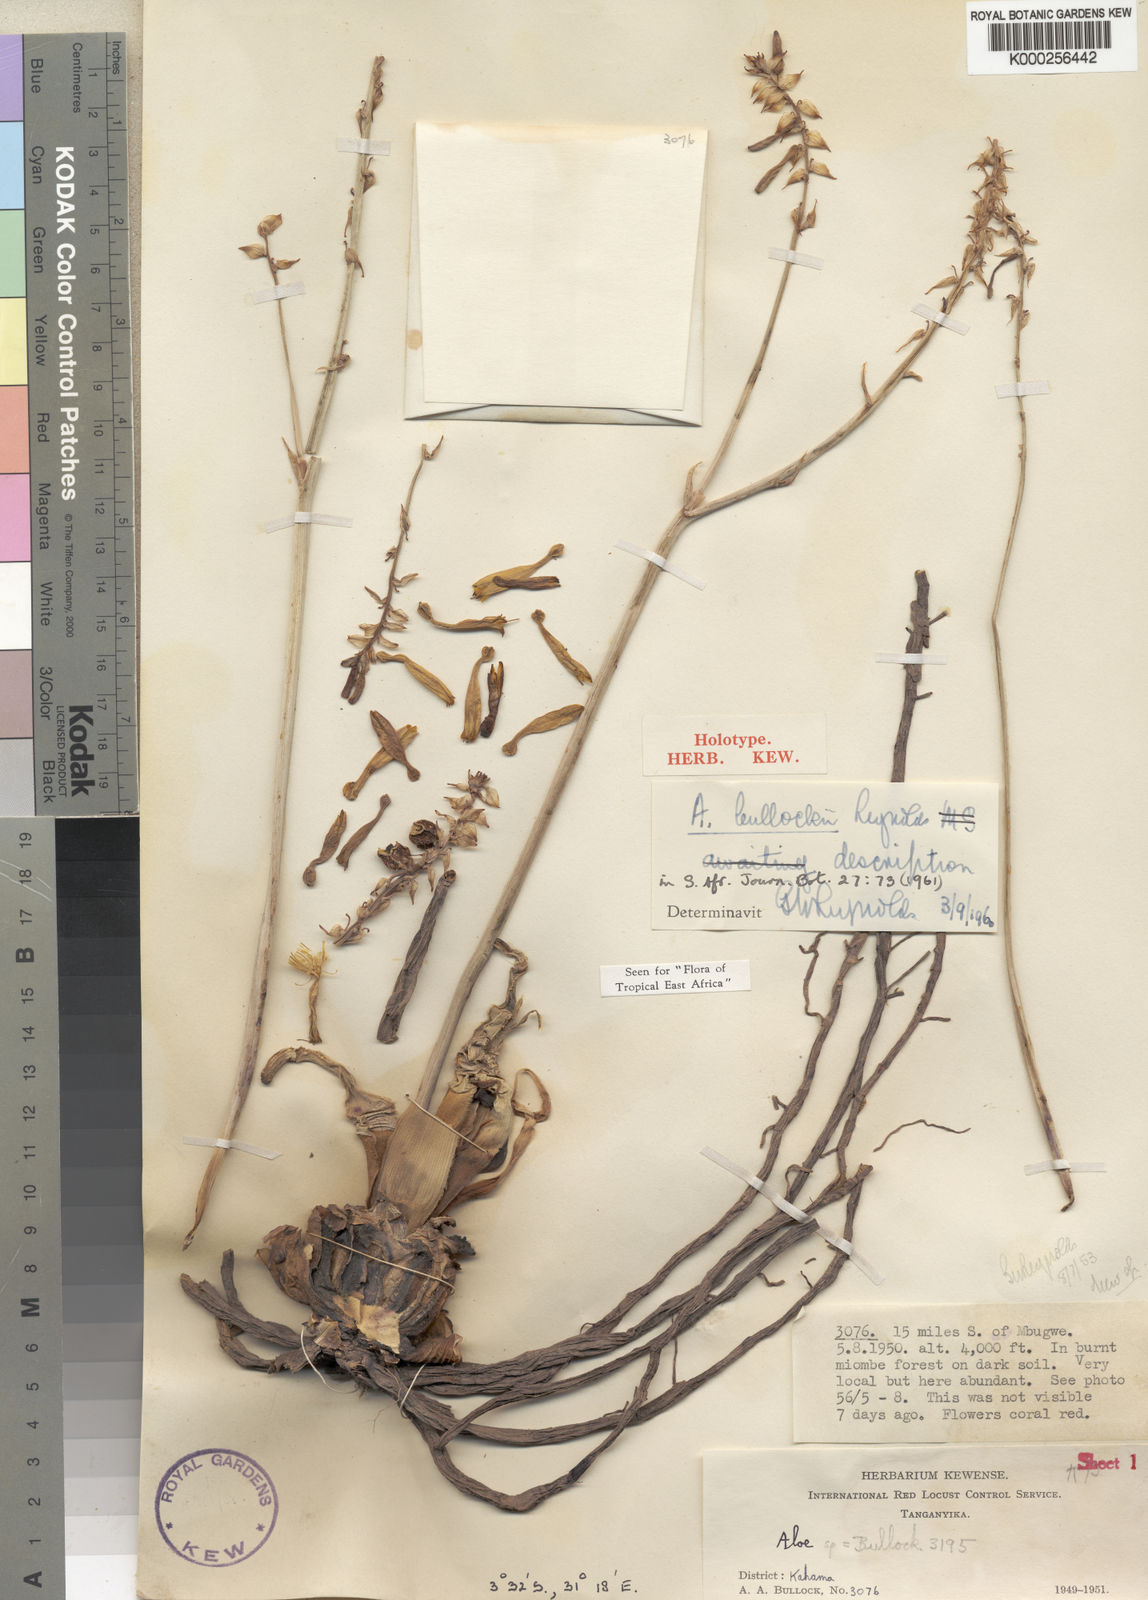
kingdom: Plantae
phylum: Tracheophyta
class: Liliopsida
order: Asparagales
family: Asphodelaceae
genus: Aloe
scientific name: Aloe bullockii
